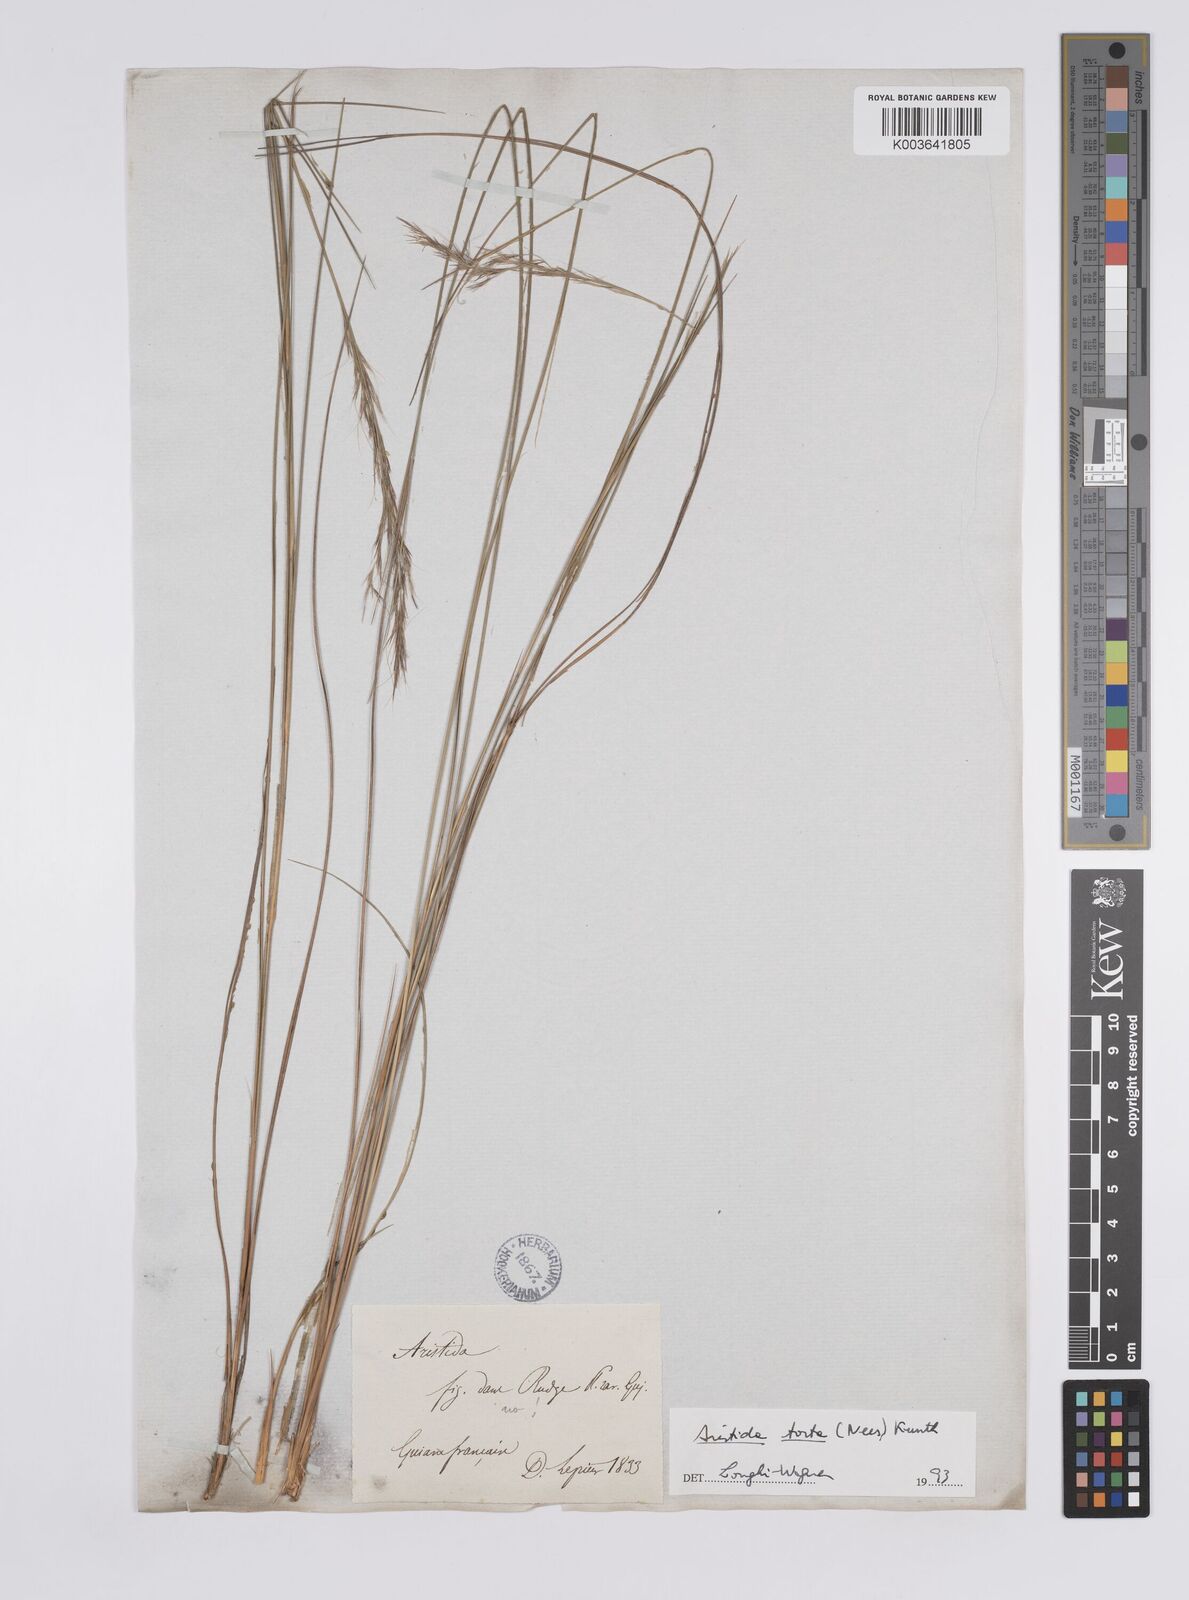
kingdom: Plantae
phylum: Tracheophyta
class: Liliopsida
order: Poales
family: Poaceae
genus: Aristida
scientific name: Aristida torta
